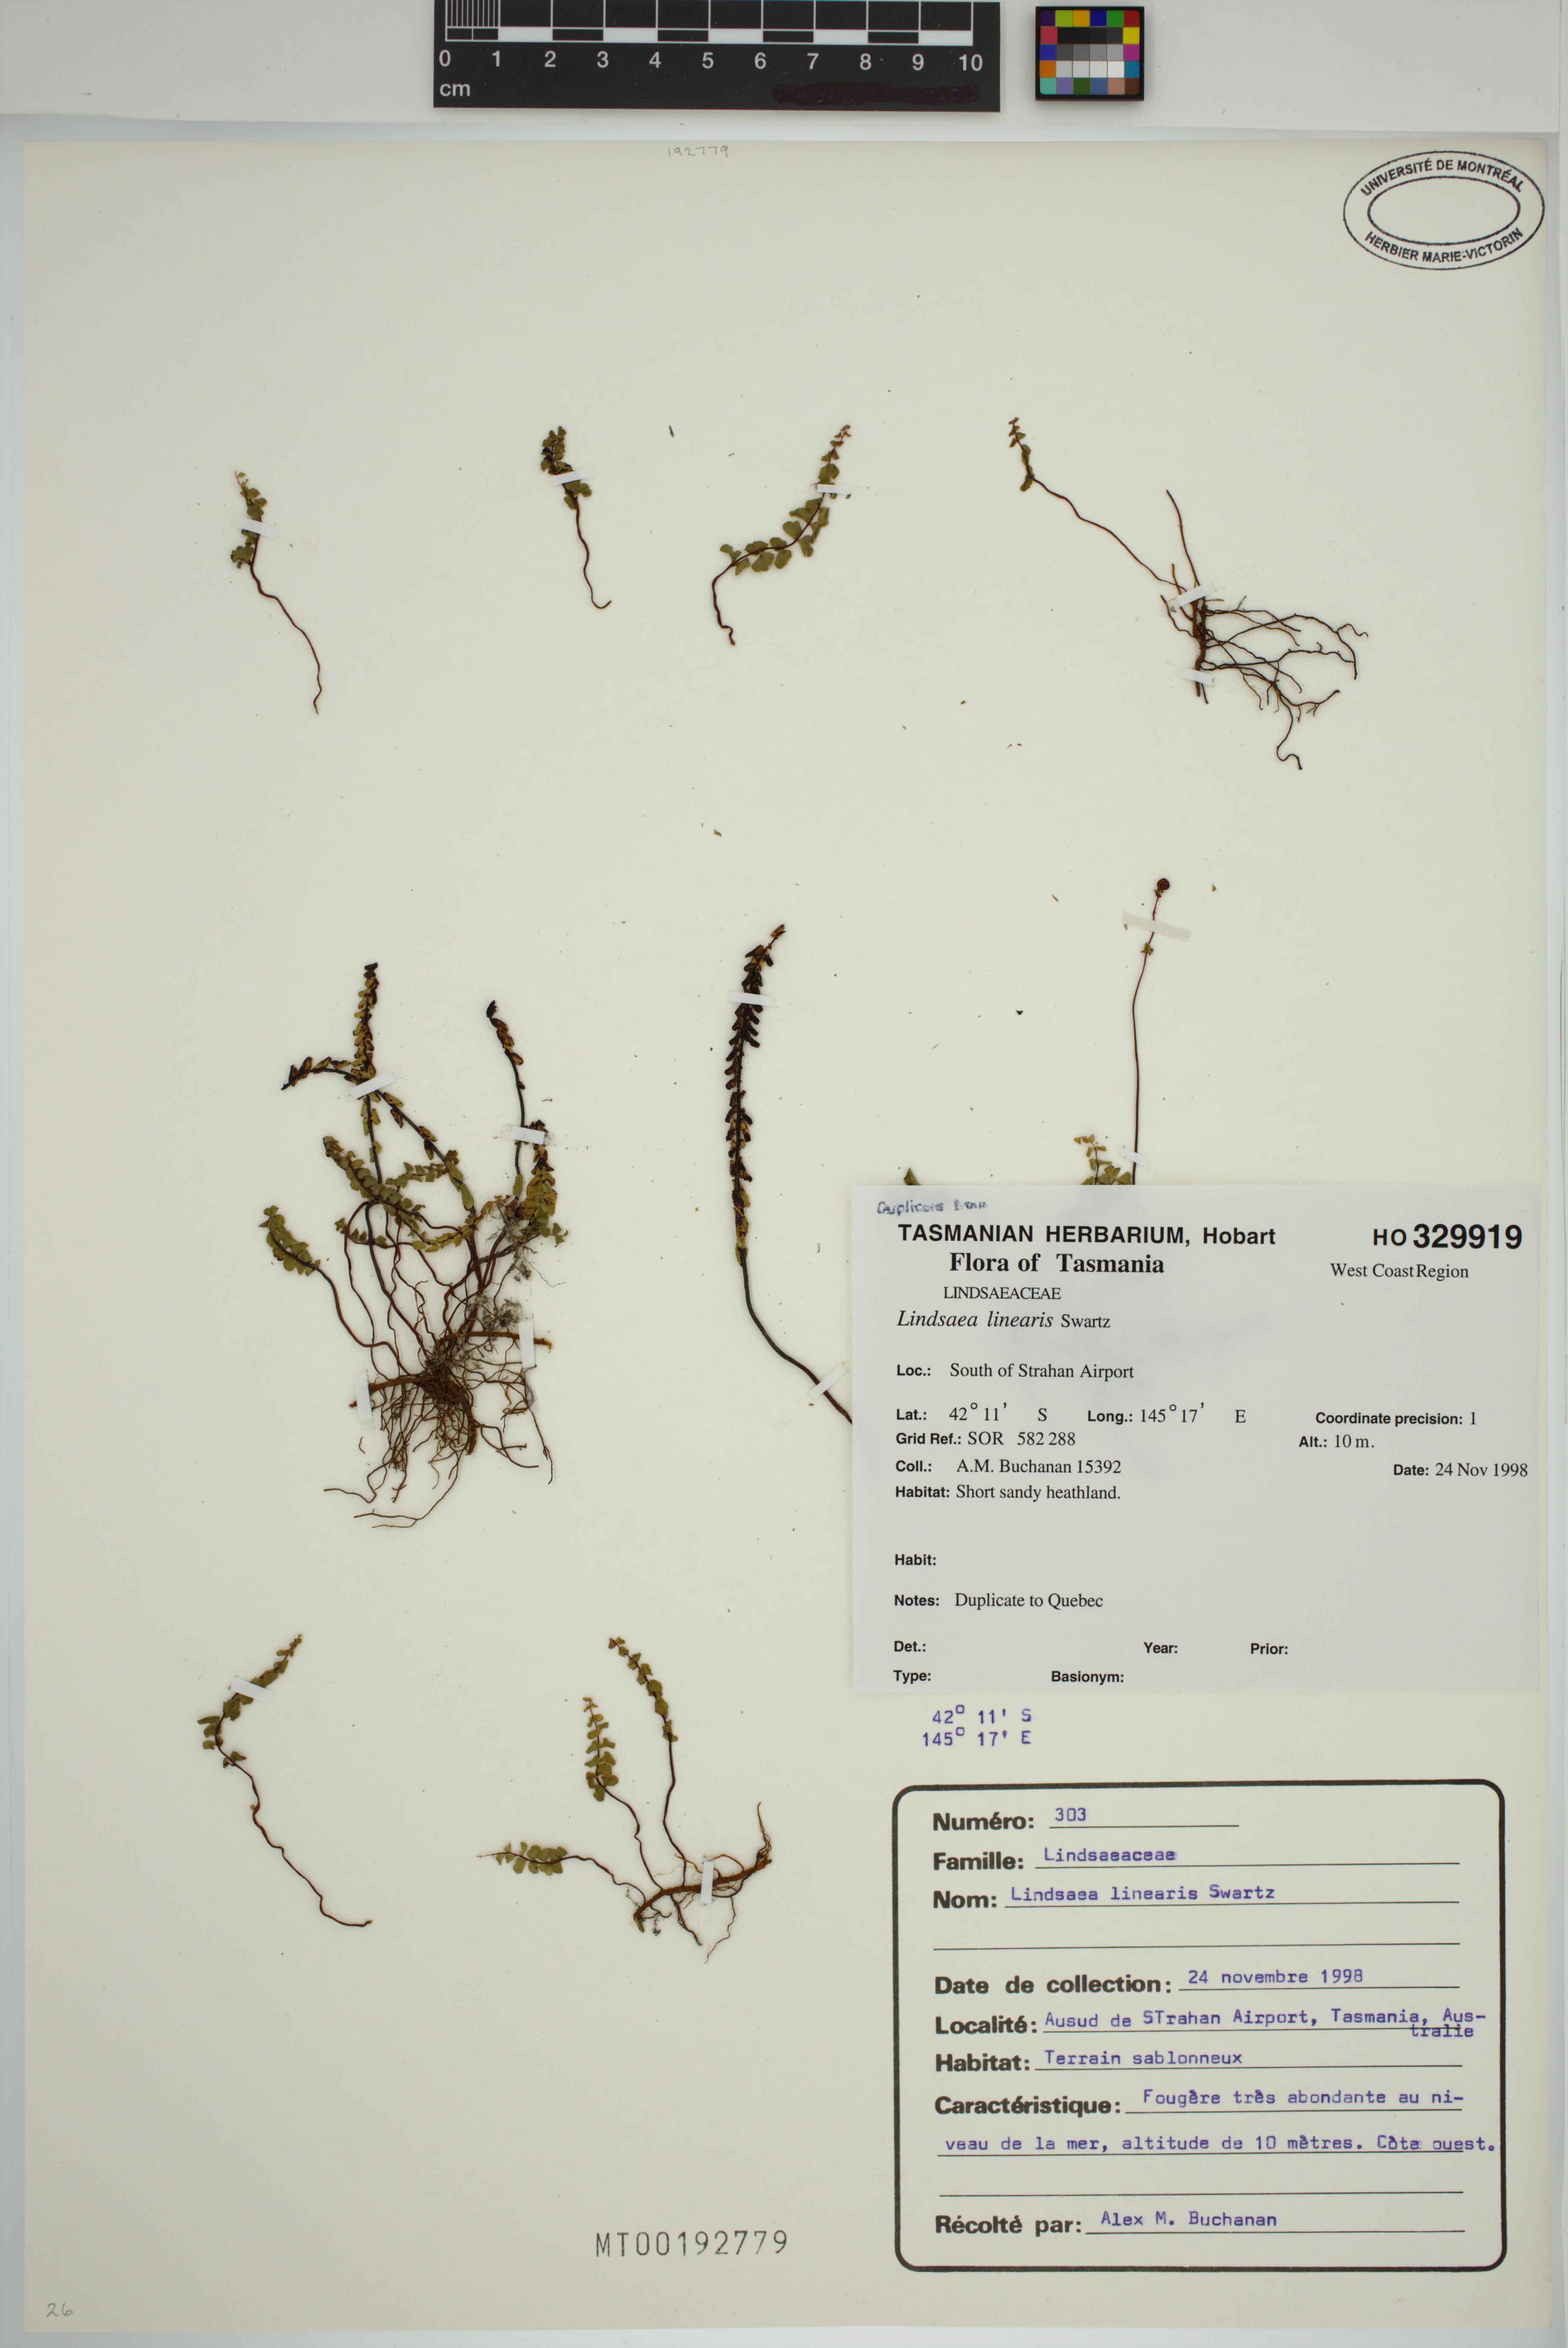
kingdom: Plantae
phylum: Tracheophyta
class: Polypodiopsida
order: Polypodiales
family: Lindsaeaceae
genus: Lindsaea
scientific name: Lindsaea linearis
